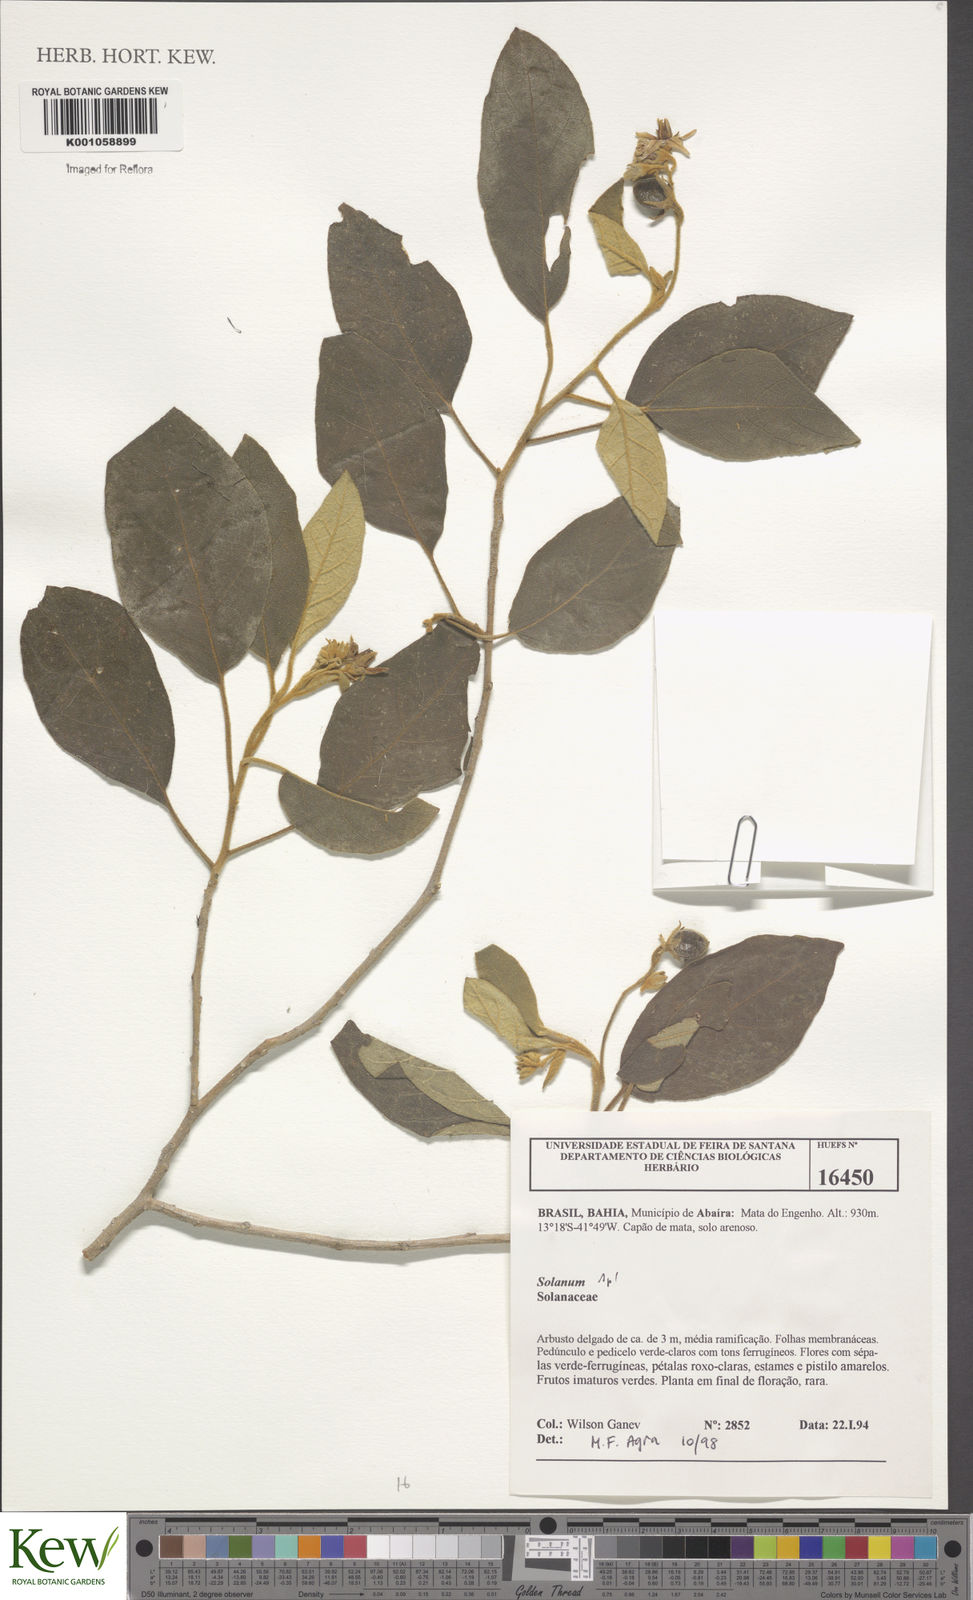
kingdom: Plantae
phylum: Tracheophyta
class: Magnoliopsida
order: Solanales
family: Solanaceae
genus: Solanum
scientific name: Solanum
